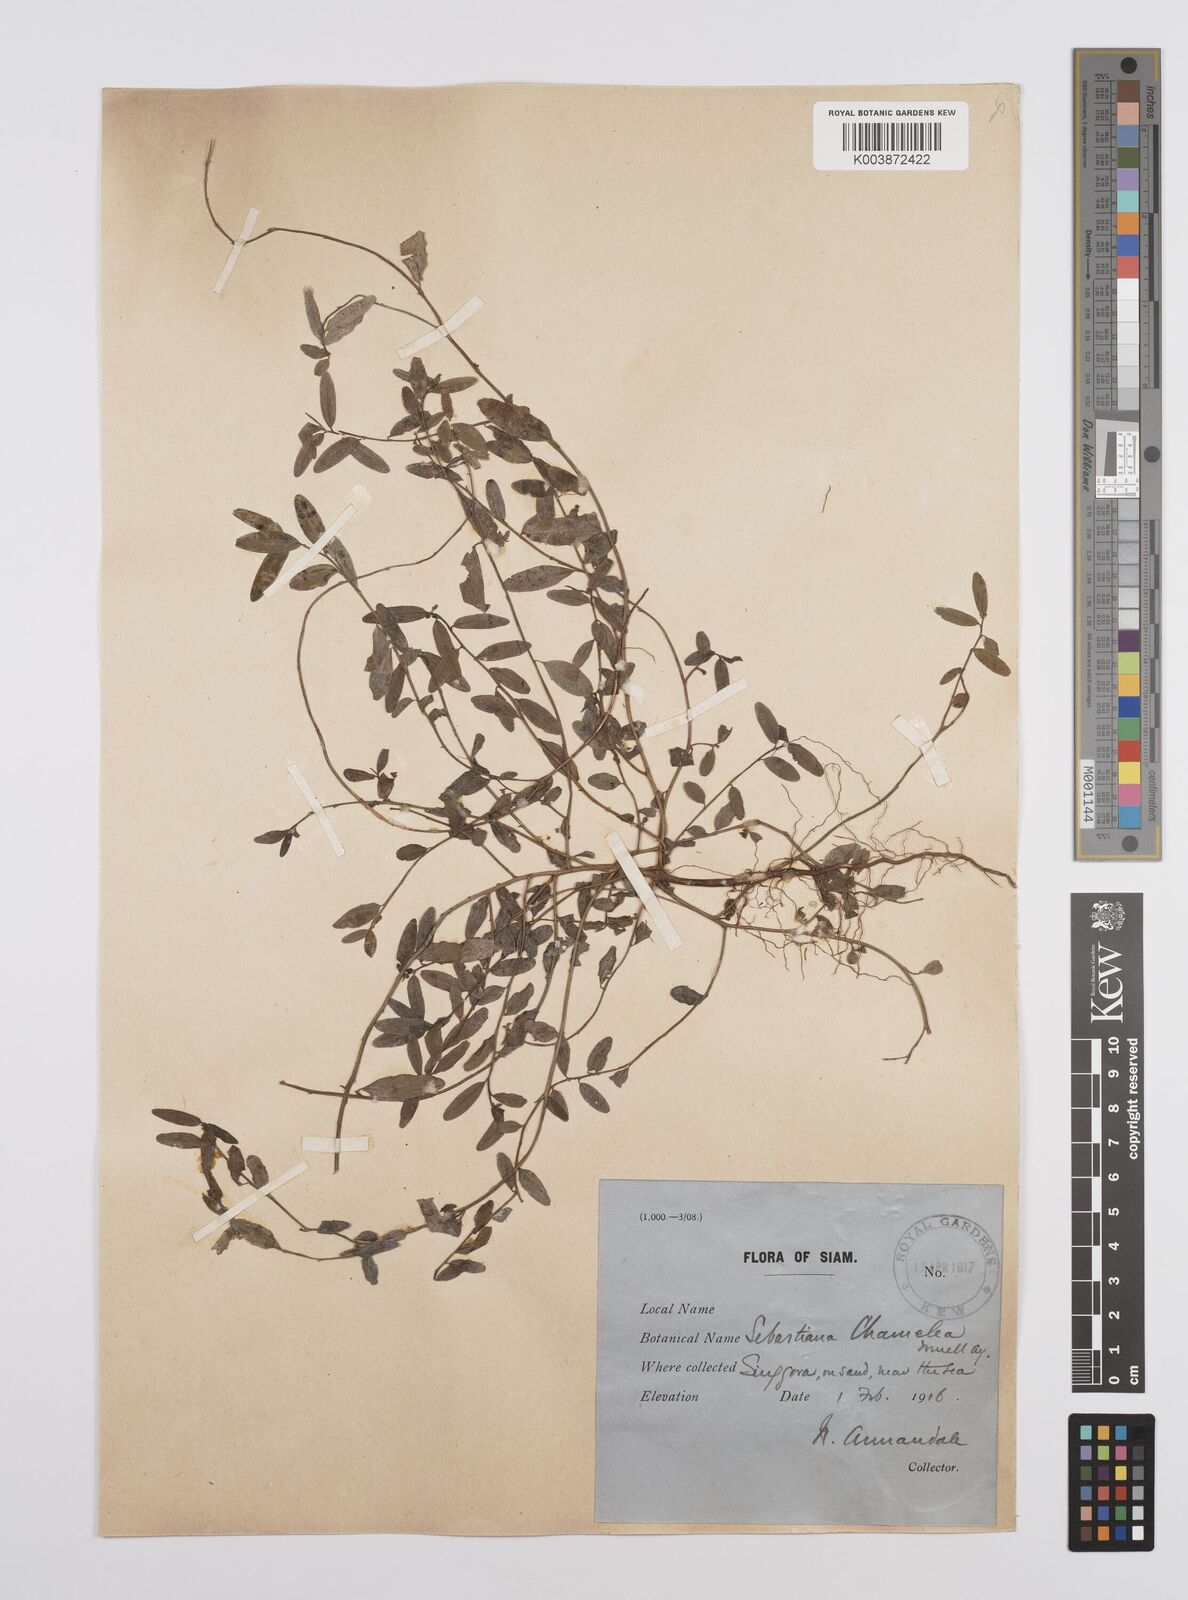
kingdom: Plantae
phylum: Tracheophyta
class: Magnoliopsida
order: Malpighiales
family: Euphorbiaceae
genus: Microstachys
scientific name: Microstachys chamaelea
